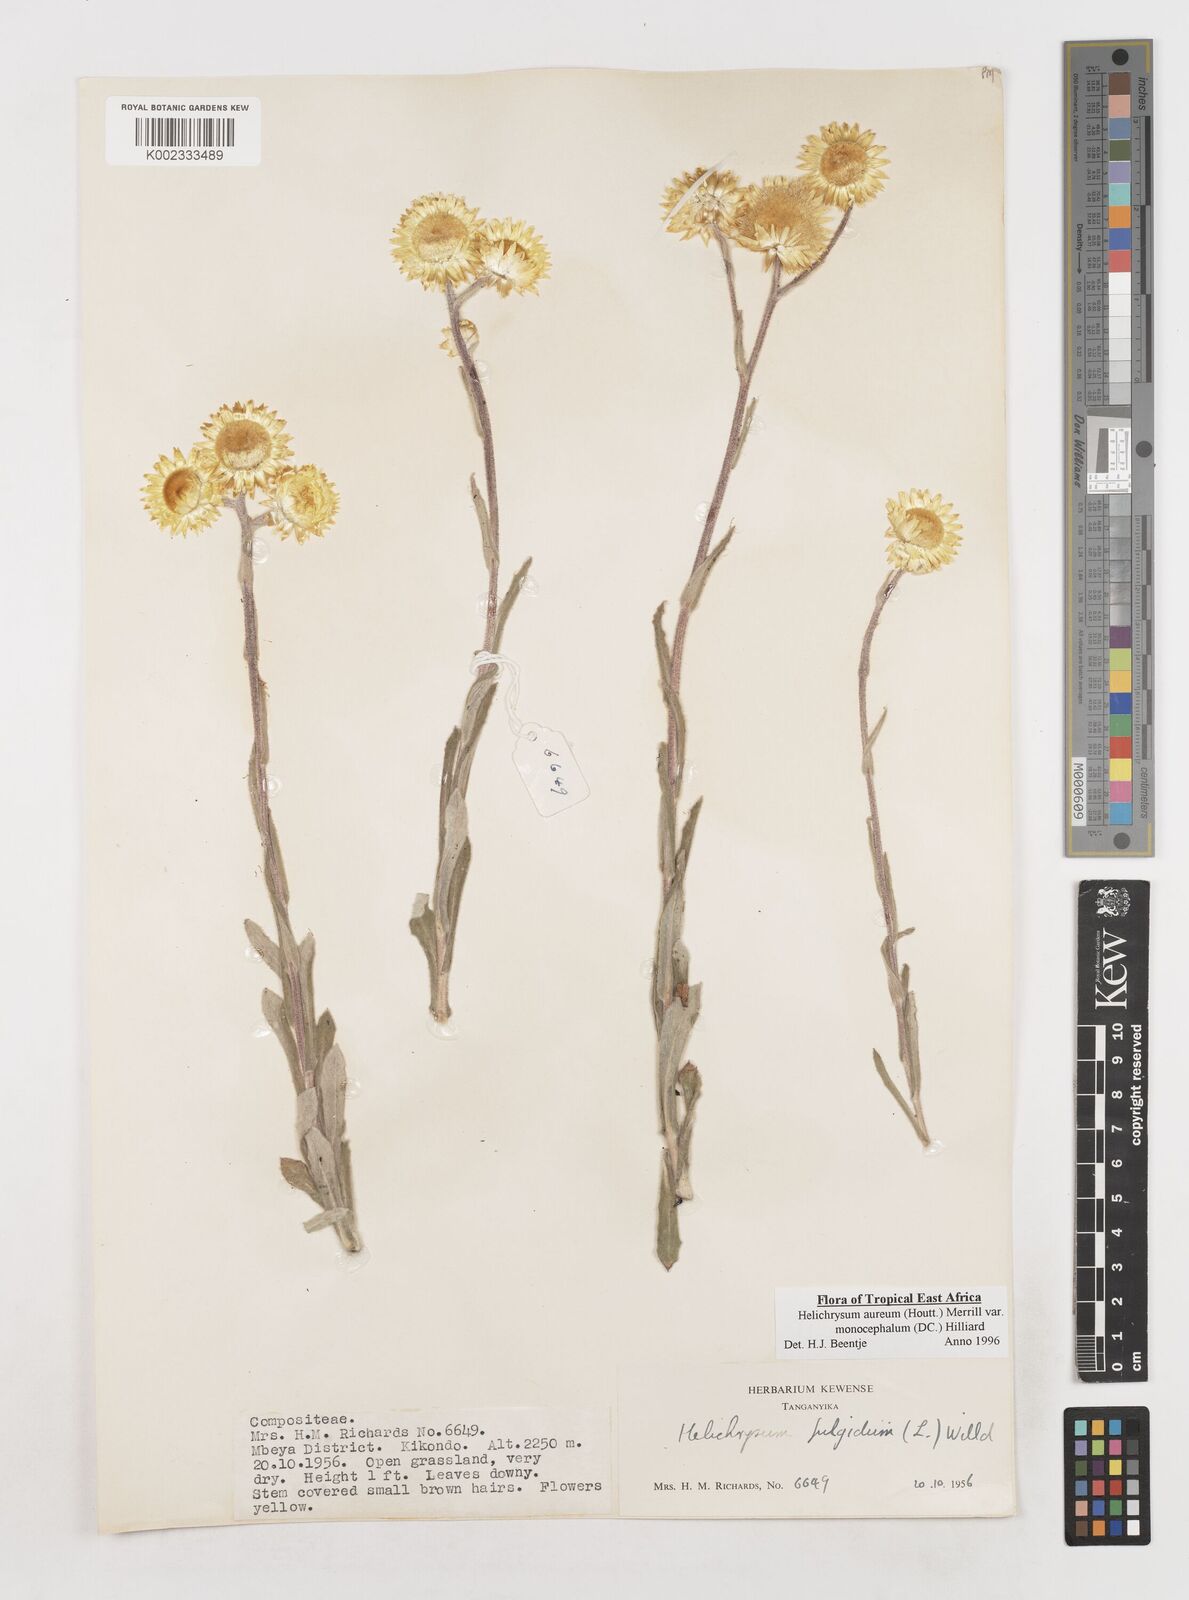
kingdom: Plantae
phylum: Tracheophyta
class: Magnoliopsida
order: Asterales
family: Asteraceae
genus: Helichrysum
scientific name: Helichrysum aureum
